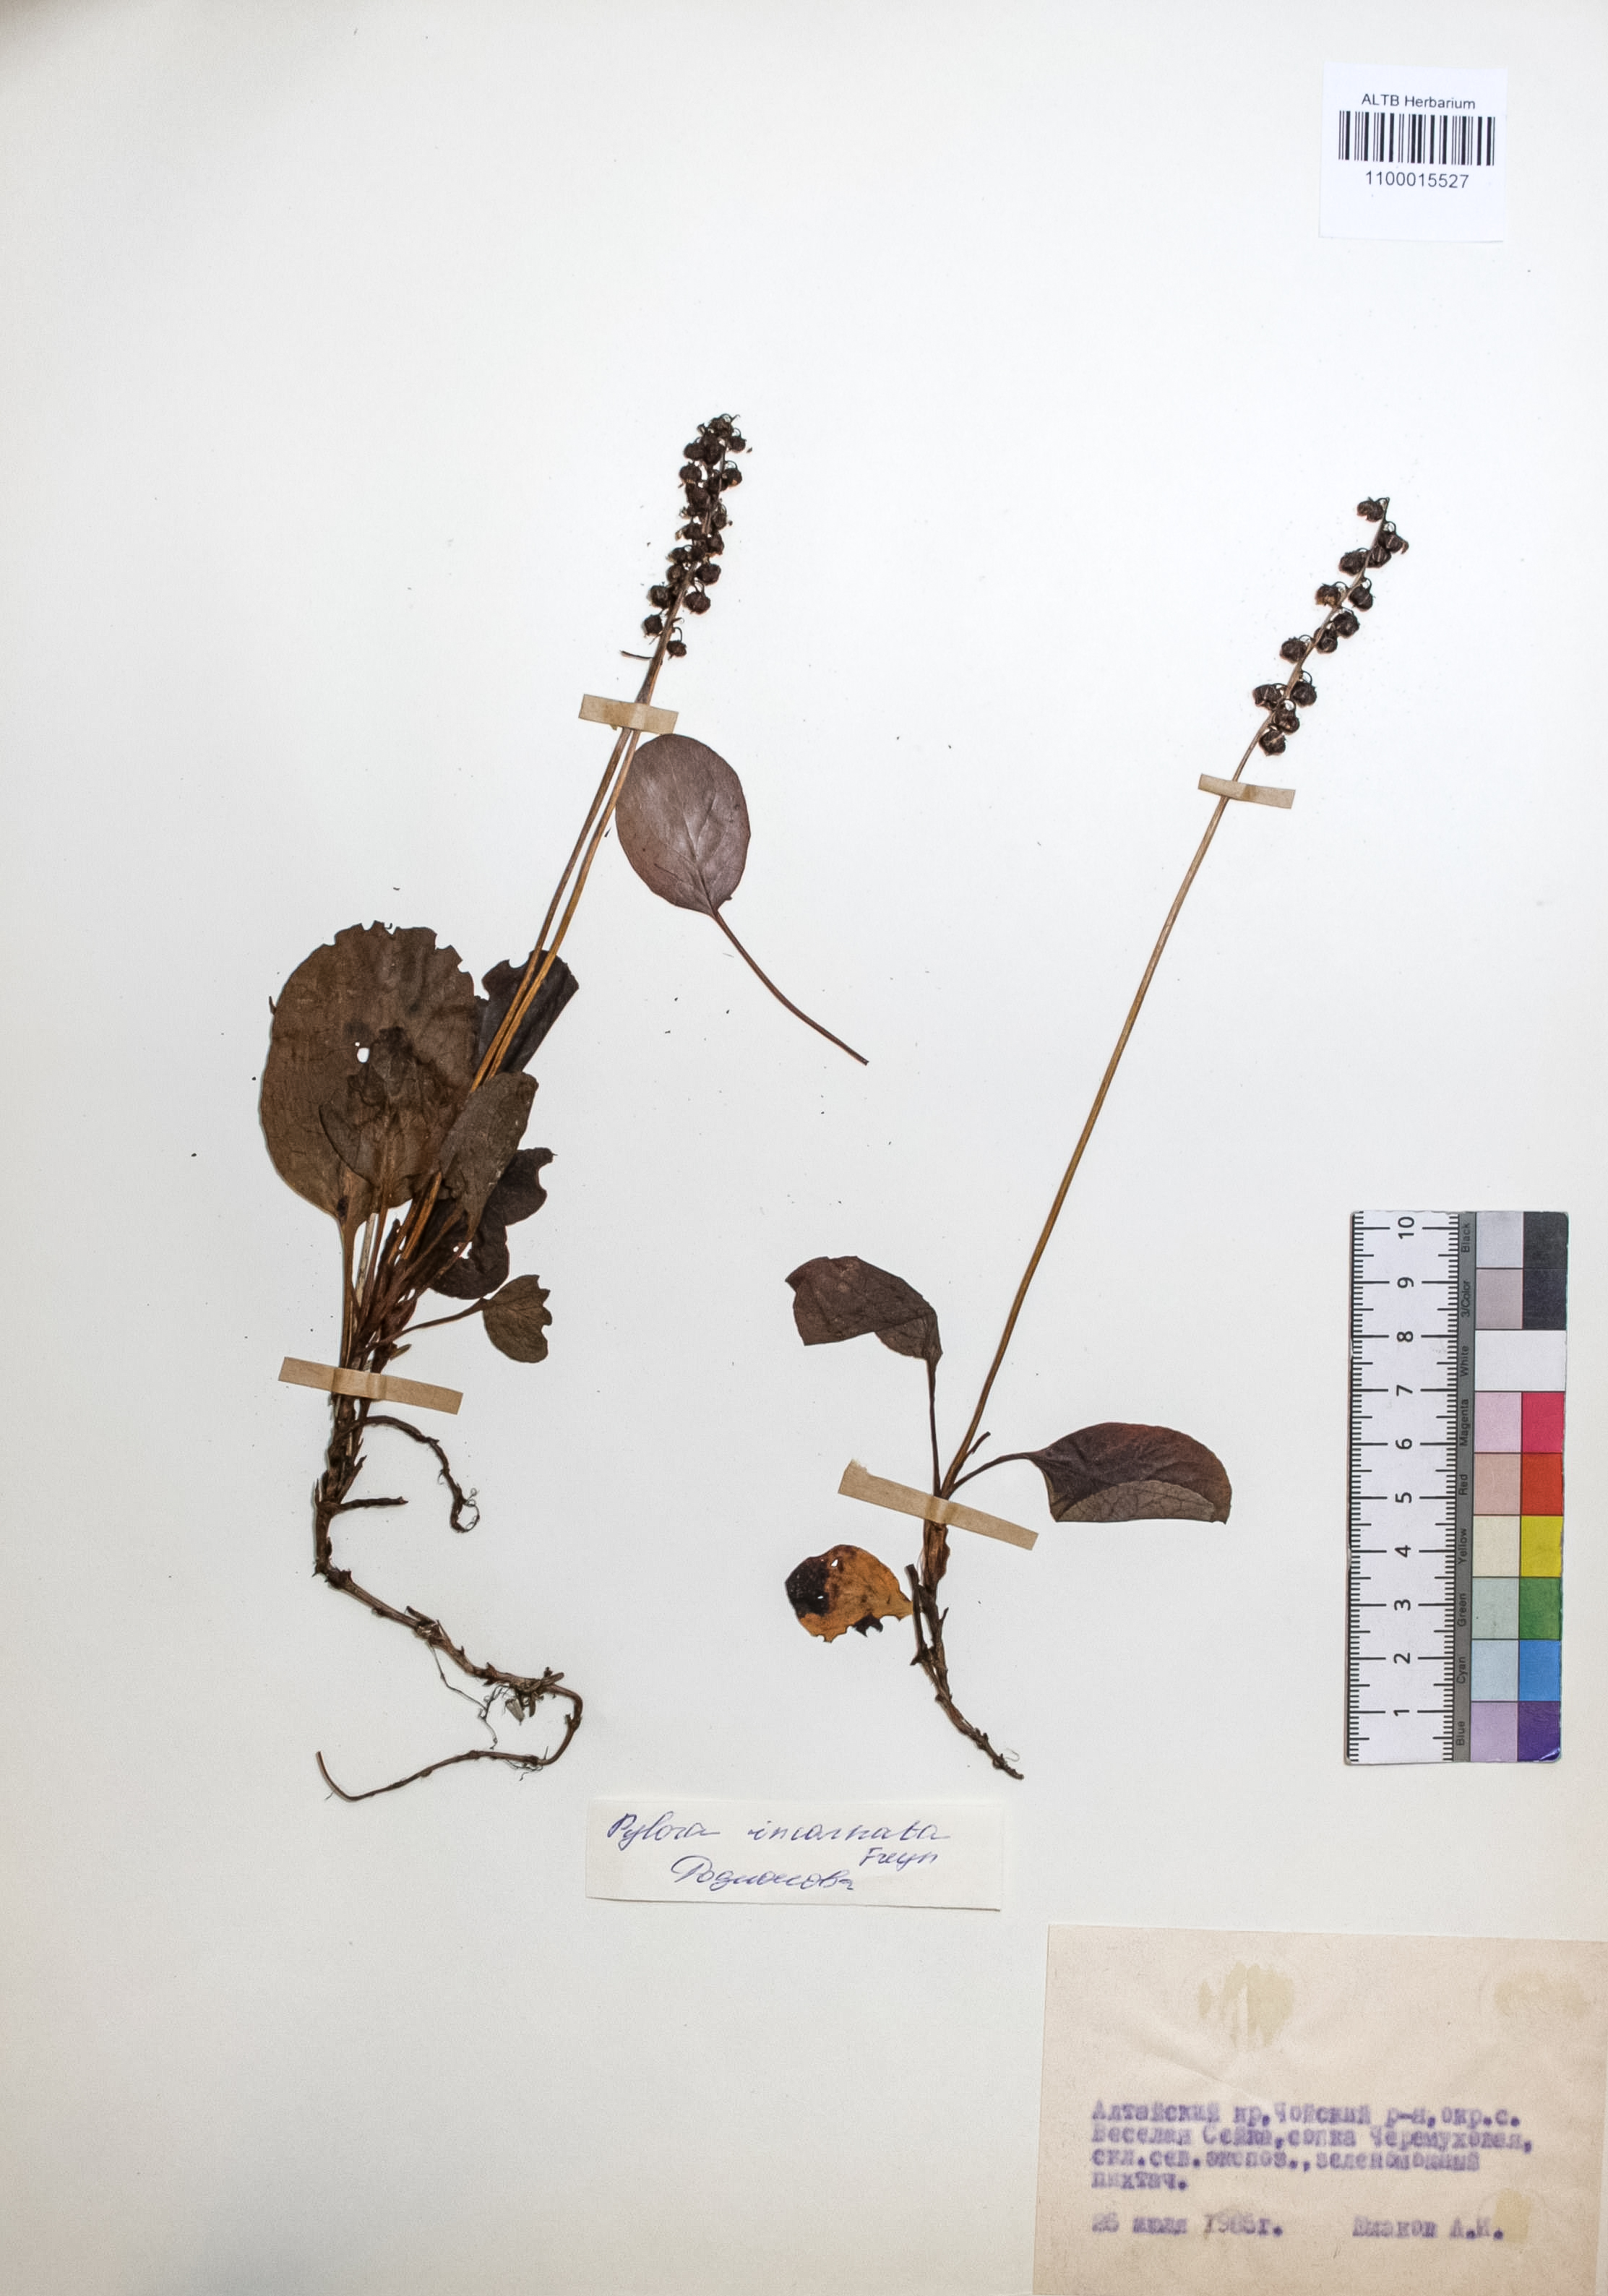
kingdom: Plantae
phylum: Tracheophyta
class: Magnoliopsida
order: Ericales
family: Ericaceae
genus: Pyrola
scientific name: Pyrola asarifolia
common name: Bog wintergreen
